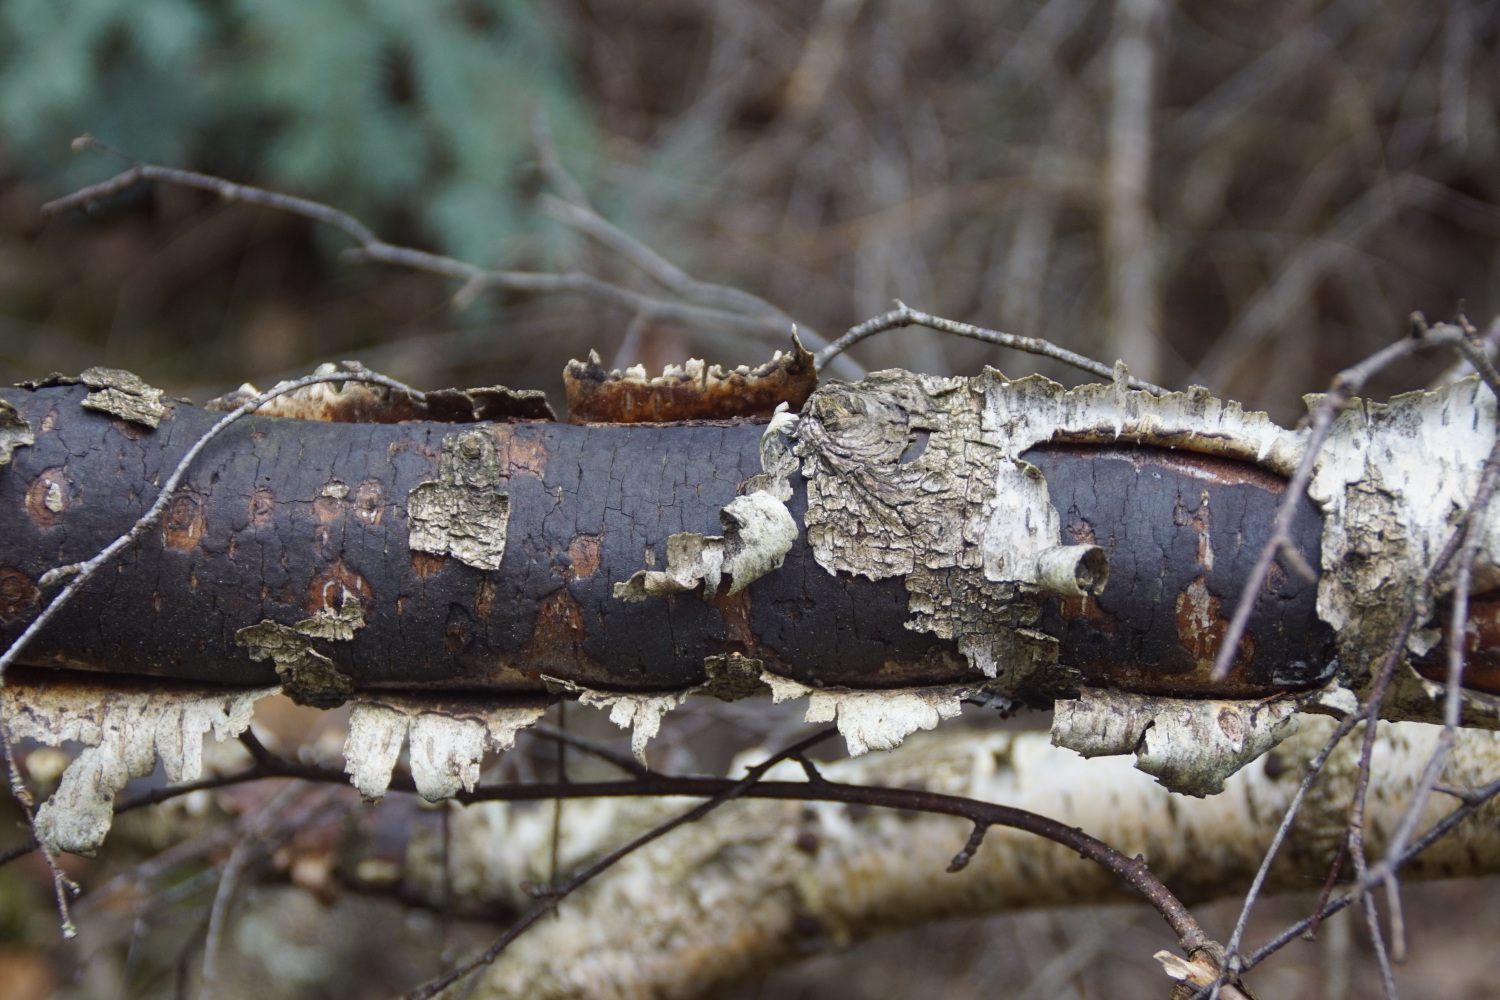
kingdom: Fungi
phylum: Ascomycota
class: Sordariomycetes
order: Xylariales
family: Diatrypaceae
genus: Diatrype
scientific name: Diatrype
